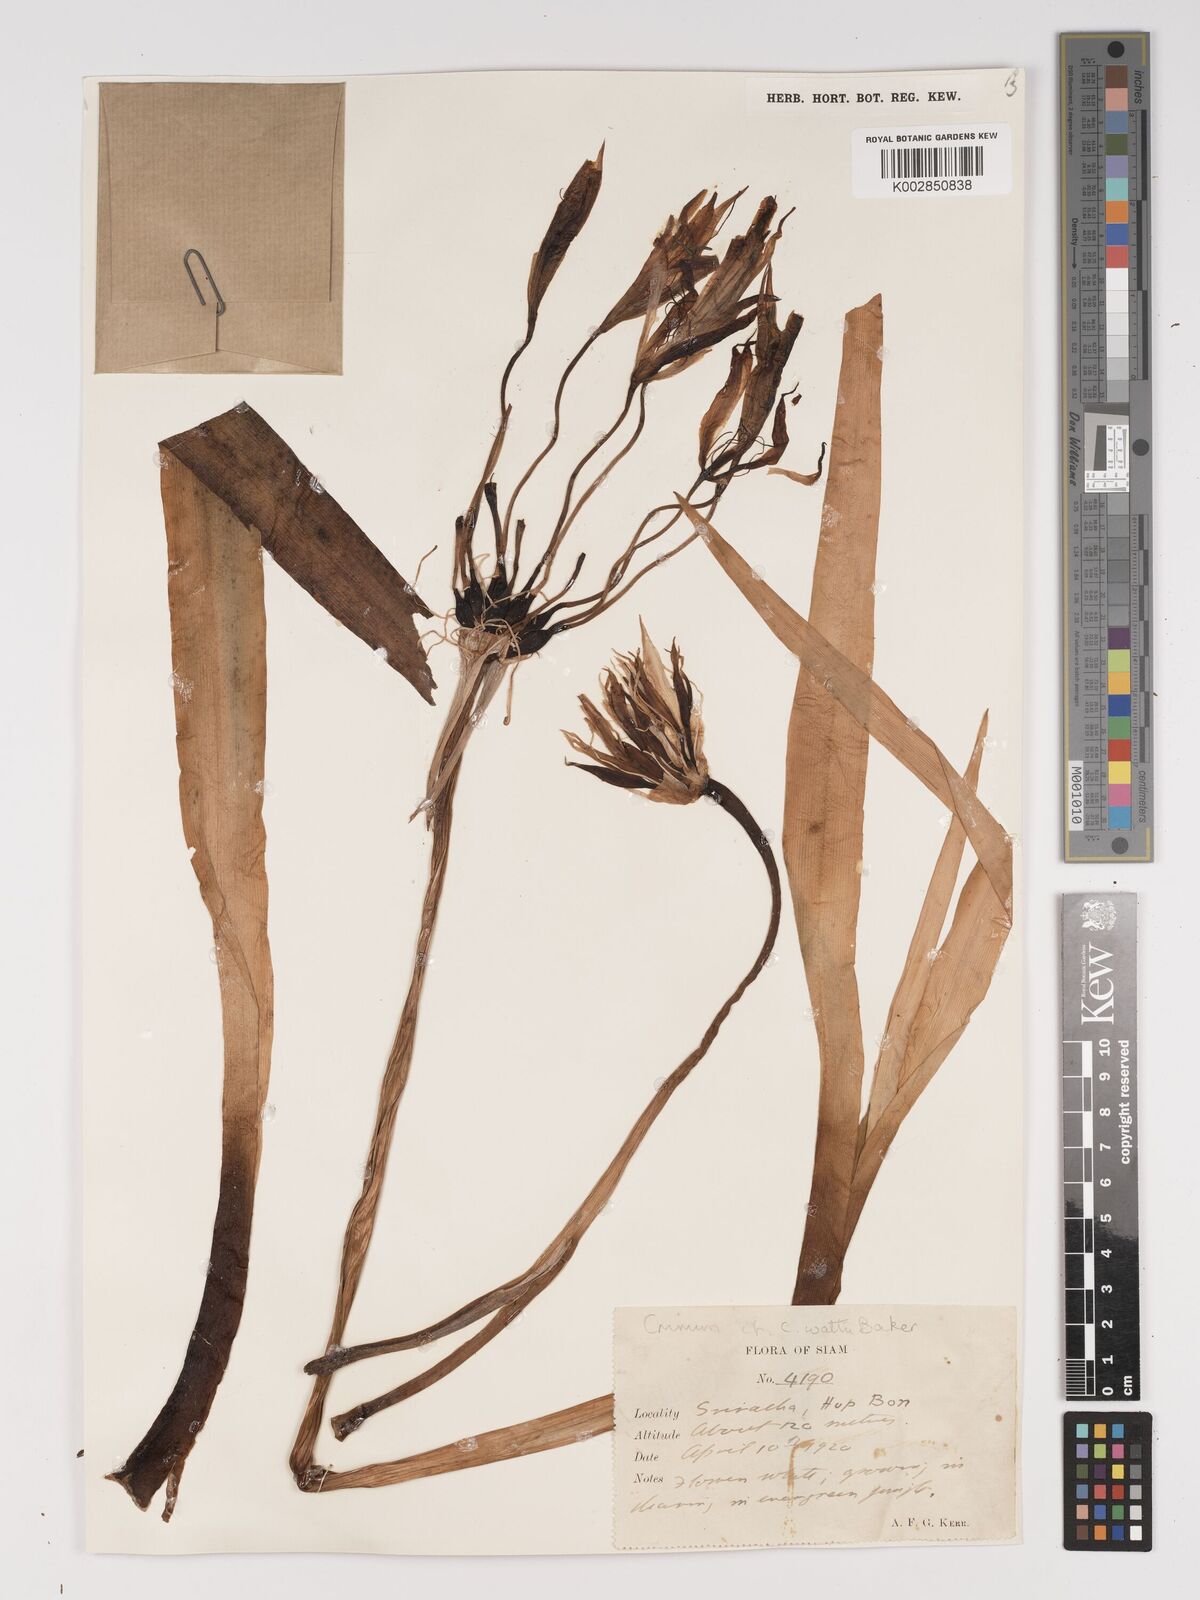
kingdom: Plantae
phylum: Tracheophyta
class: Liliopsida
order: Asparagales
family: Amaryllidaceae
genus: Crinum
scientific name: Crinum wattii
